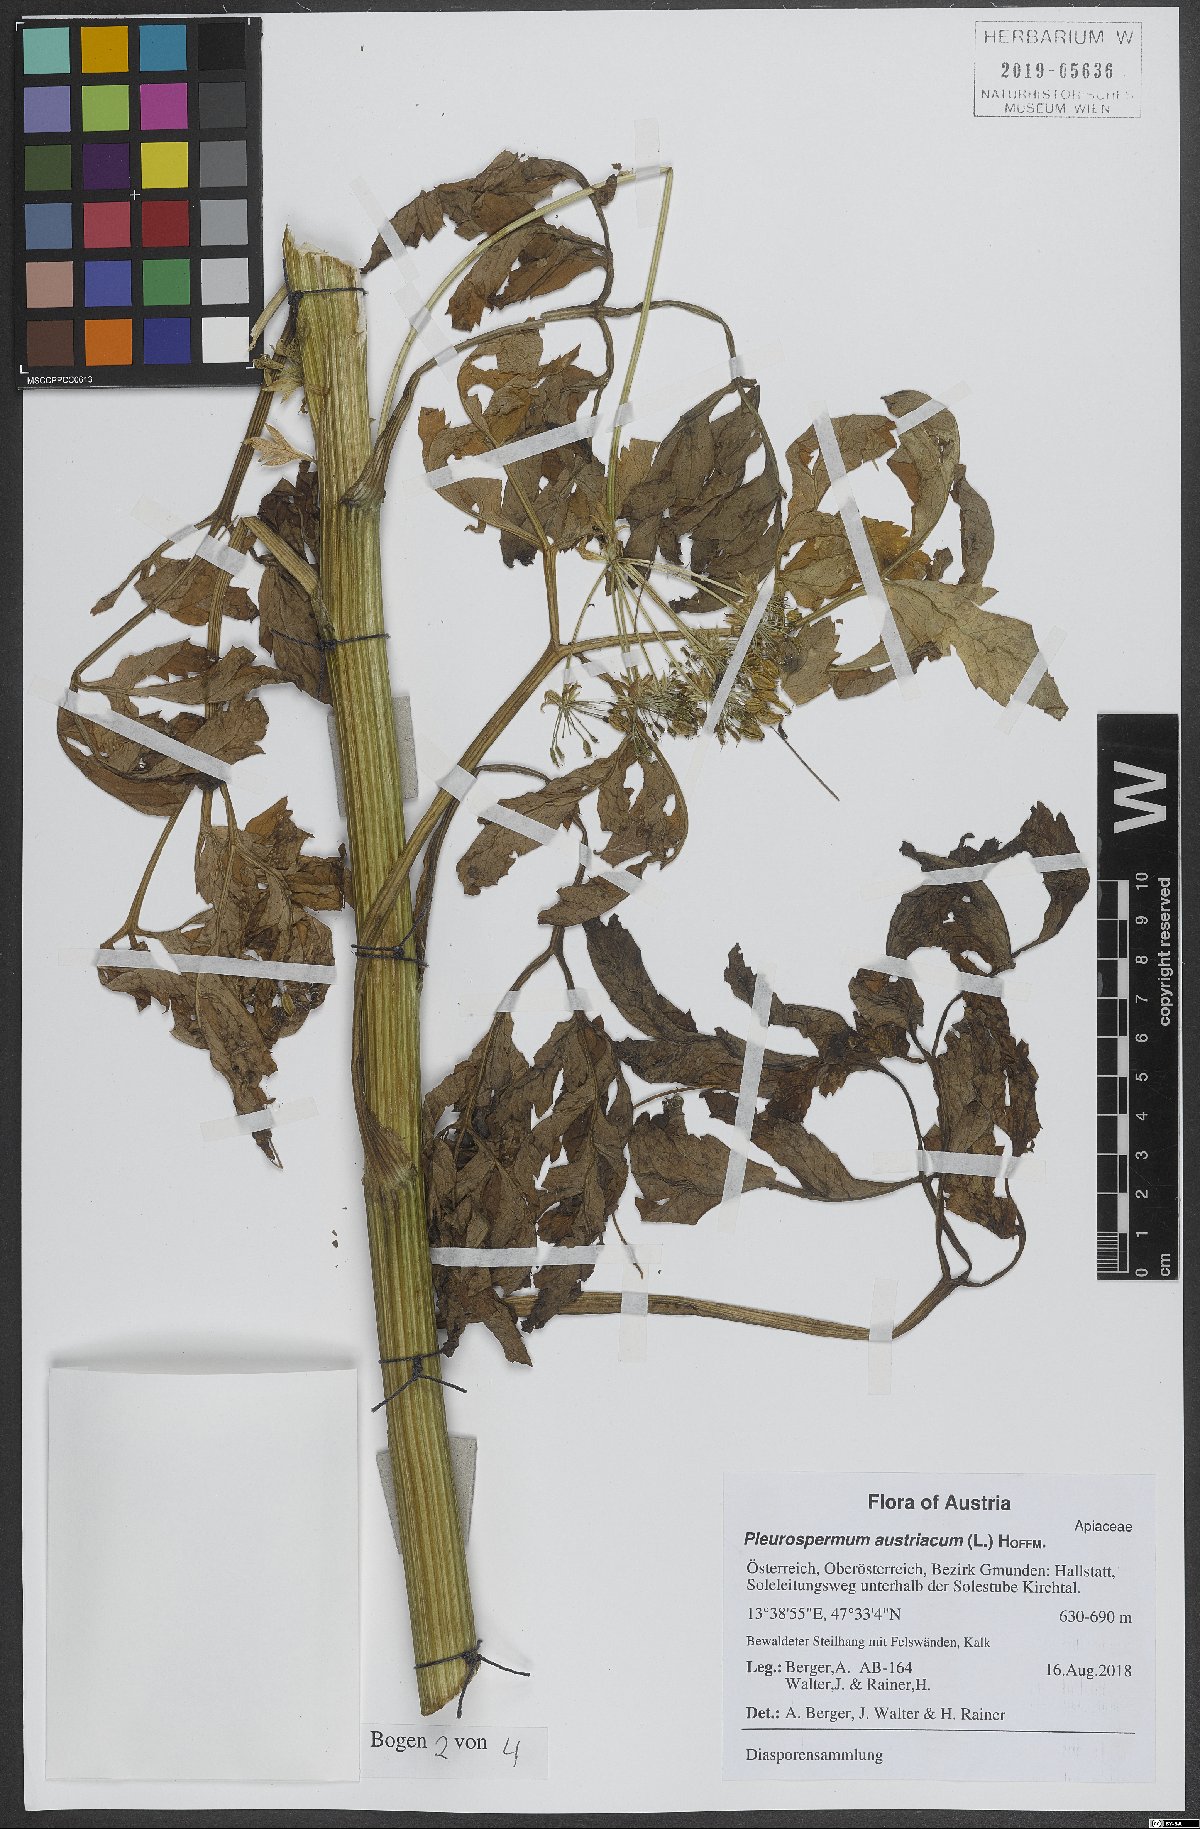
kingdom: Plantae
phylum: Tracheophyta
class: Magnoliopsida
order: Apiales
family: Apiaceae
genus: Pleurospermum
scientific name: Pleurospermum austriacum
